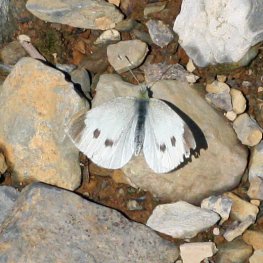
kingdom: Animalia
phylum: Arthropoda
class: Insecta
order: Lepidoptera
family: Pieridae
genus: Pieris
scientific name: Pieris rapae
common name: Cabbage White
